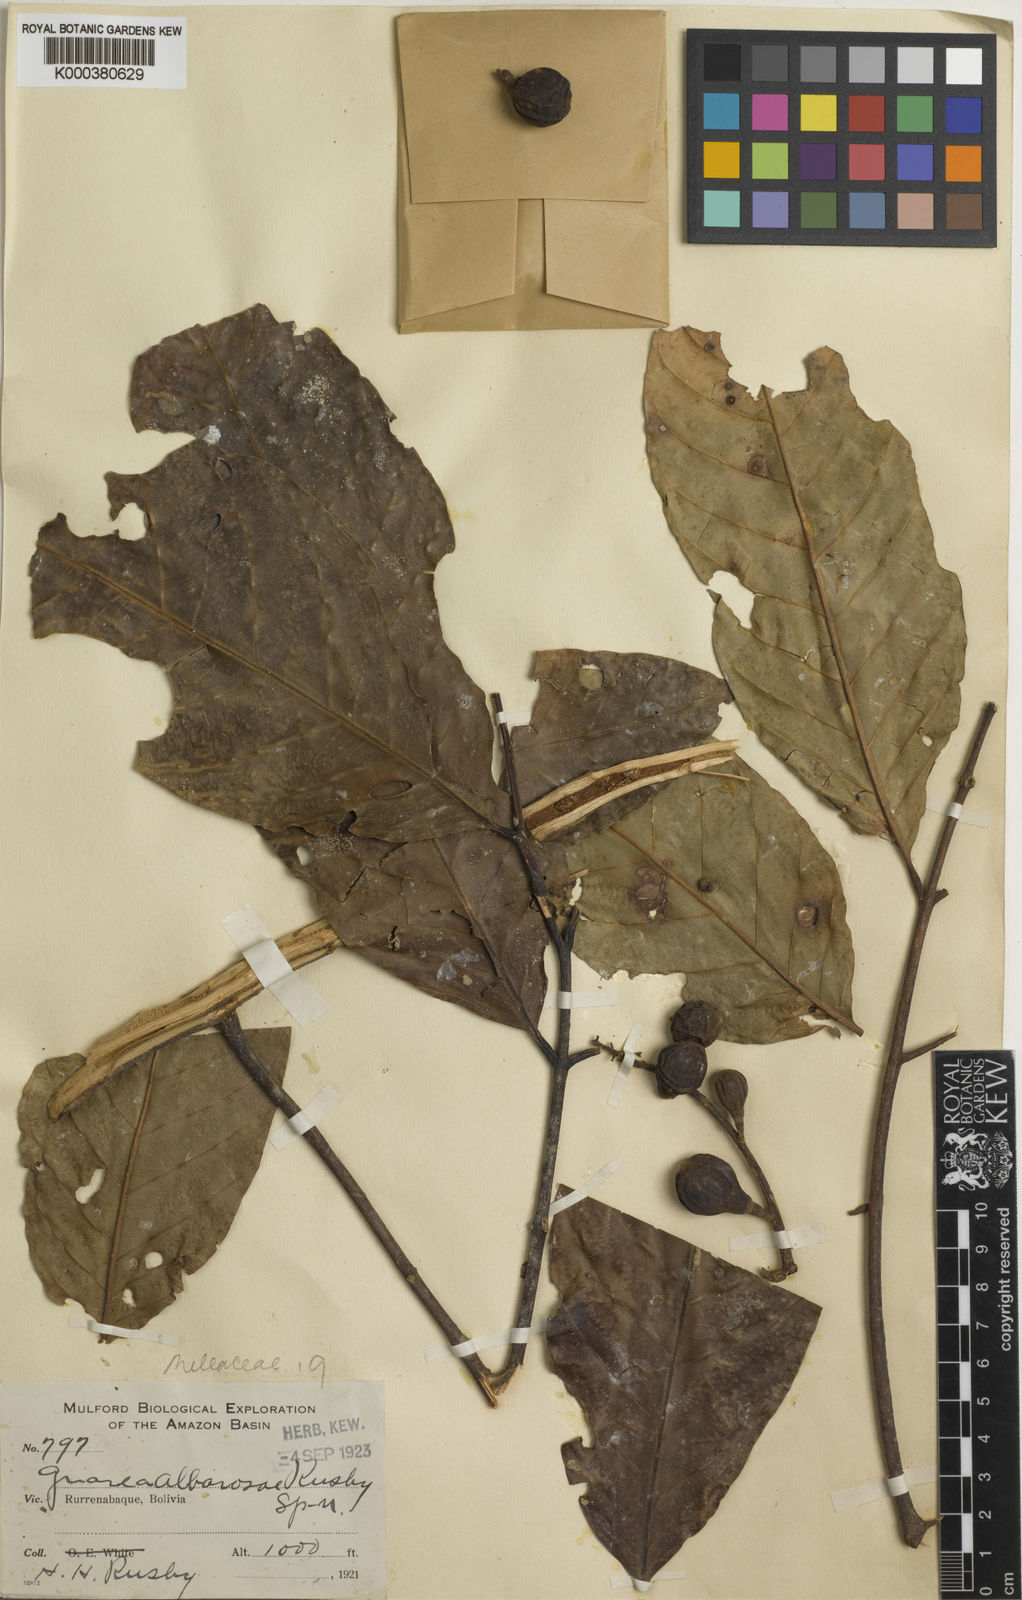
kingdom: Plantae
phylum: Tracheophyta
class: Magnoliopsida
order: Sapindales
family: Meliaceae
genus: Guarea
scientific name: Guarea macrophylla
